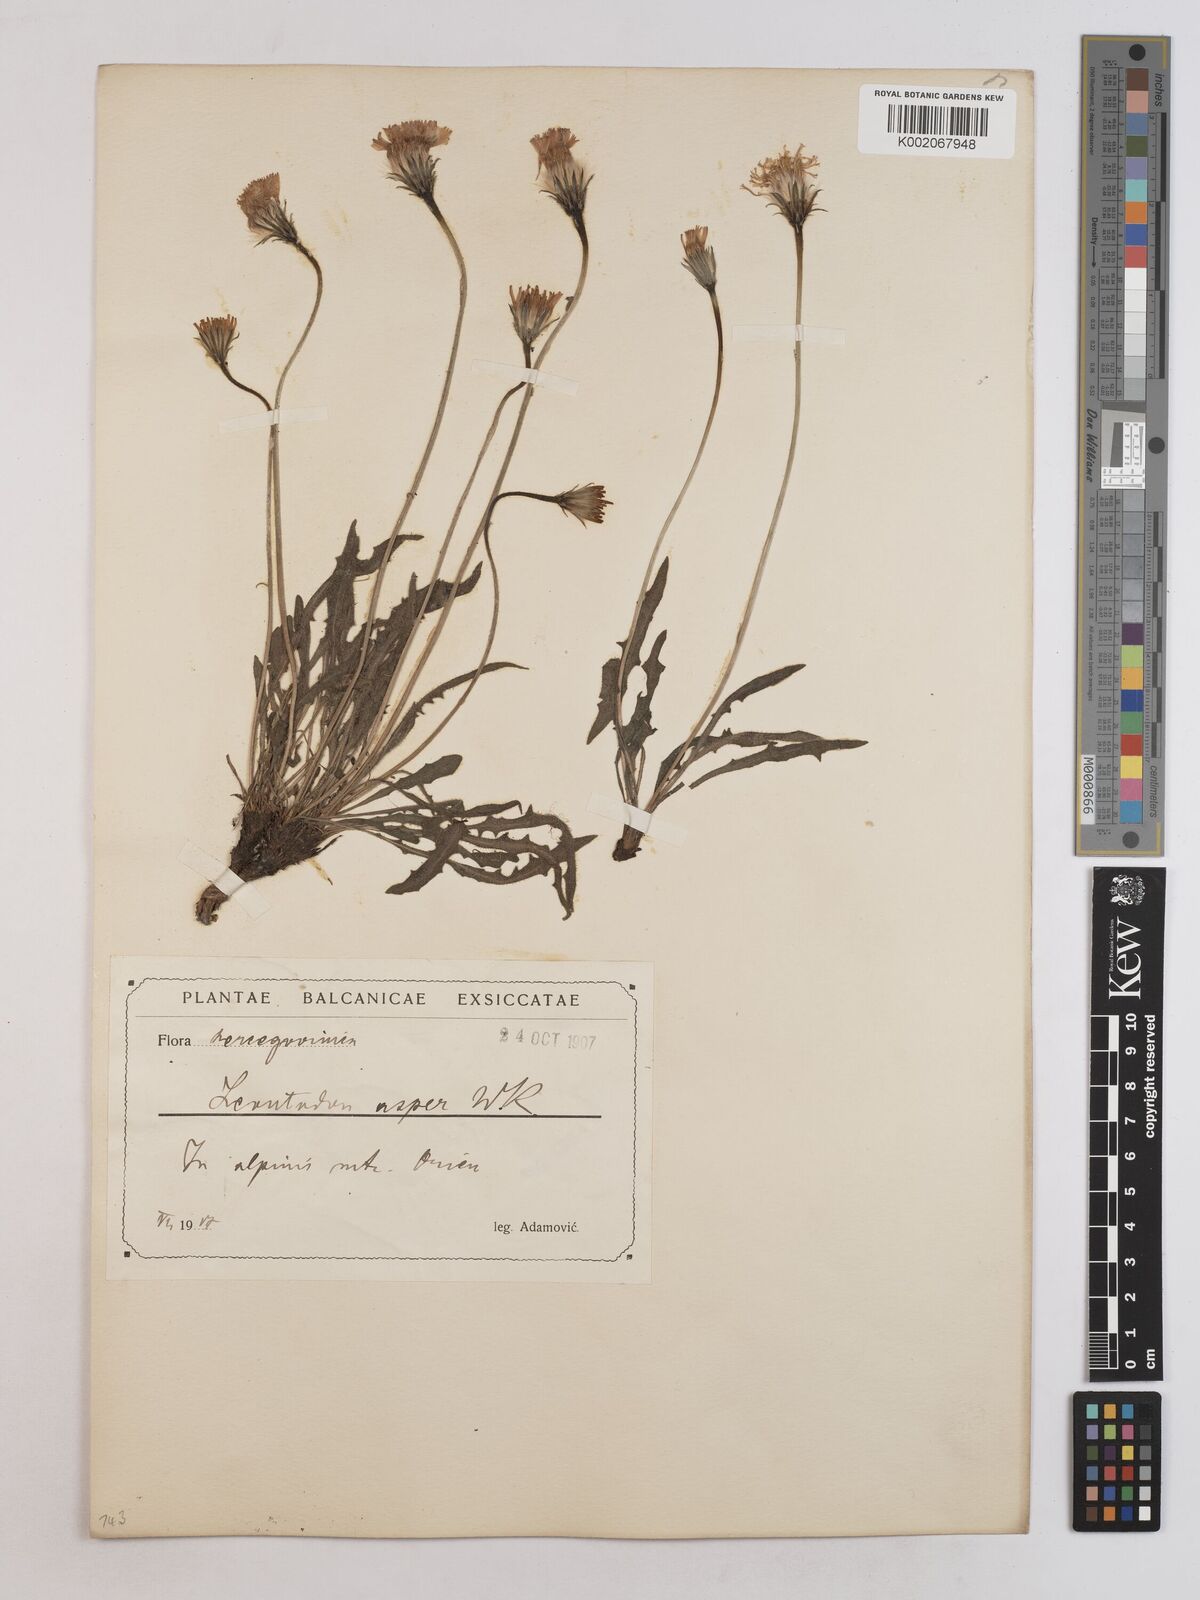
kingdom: Plantae
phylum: Tracheophyta
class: Magnoliopsida
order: Asterales
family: Asteraceae
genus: Leontodon
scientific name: Leontodon crispus
